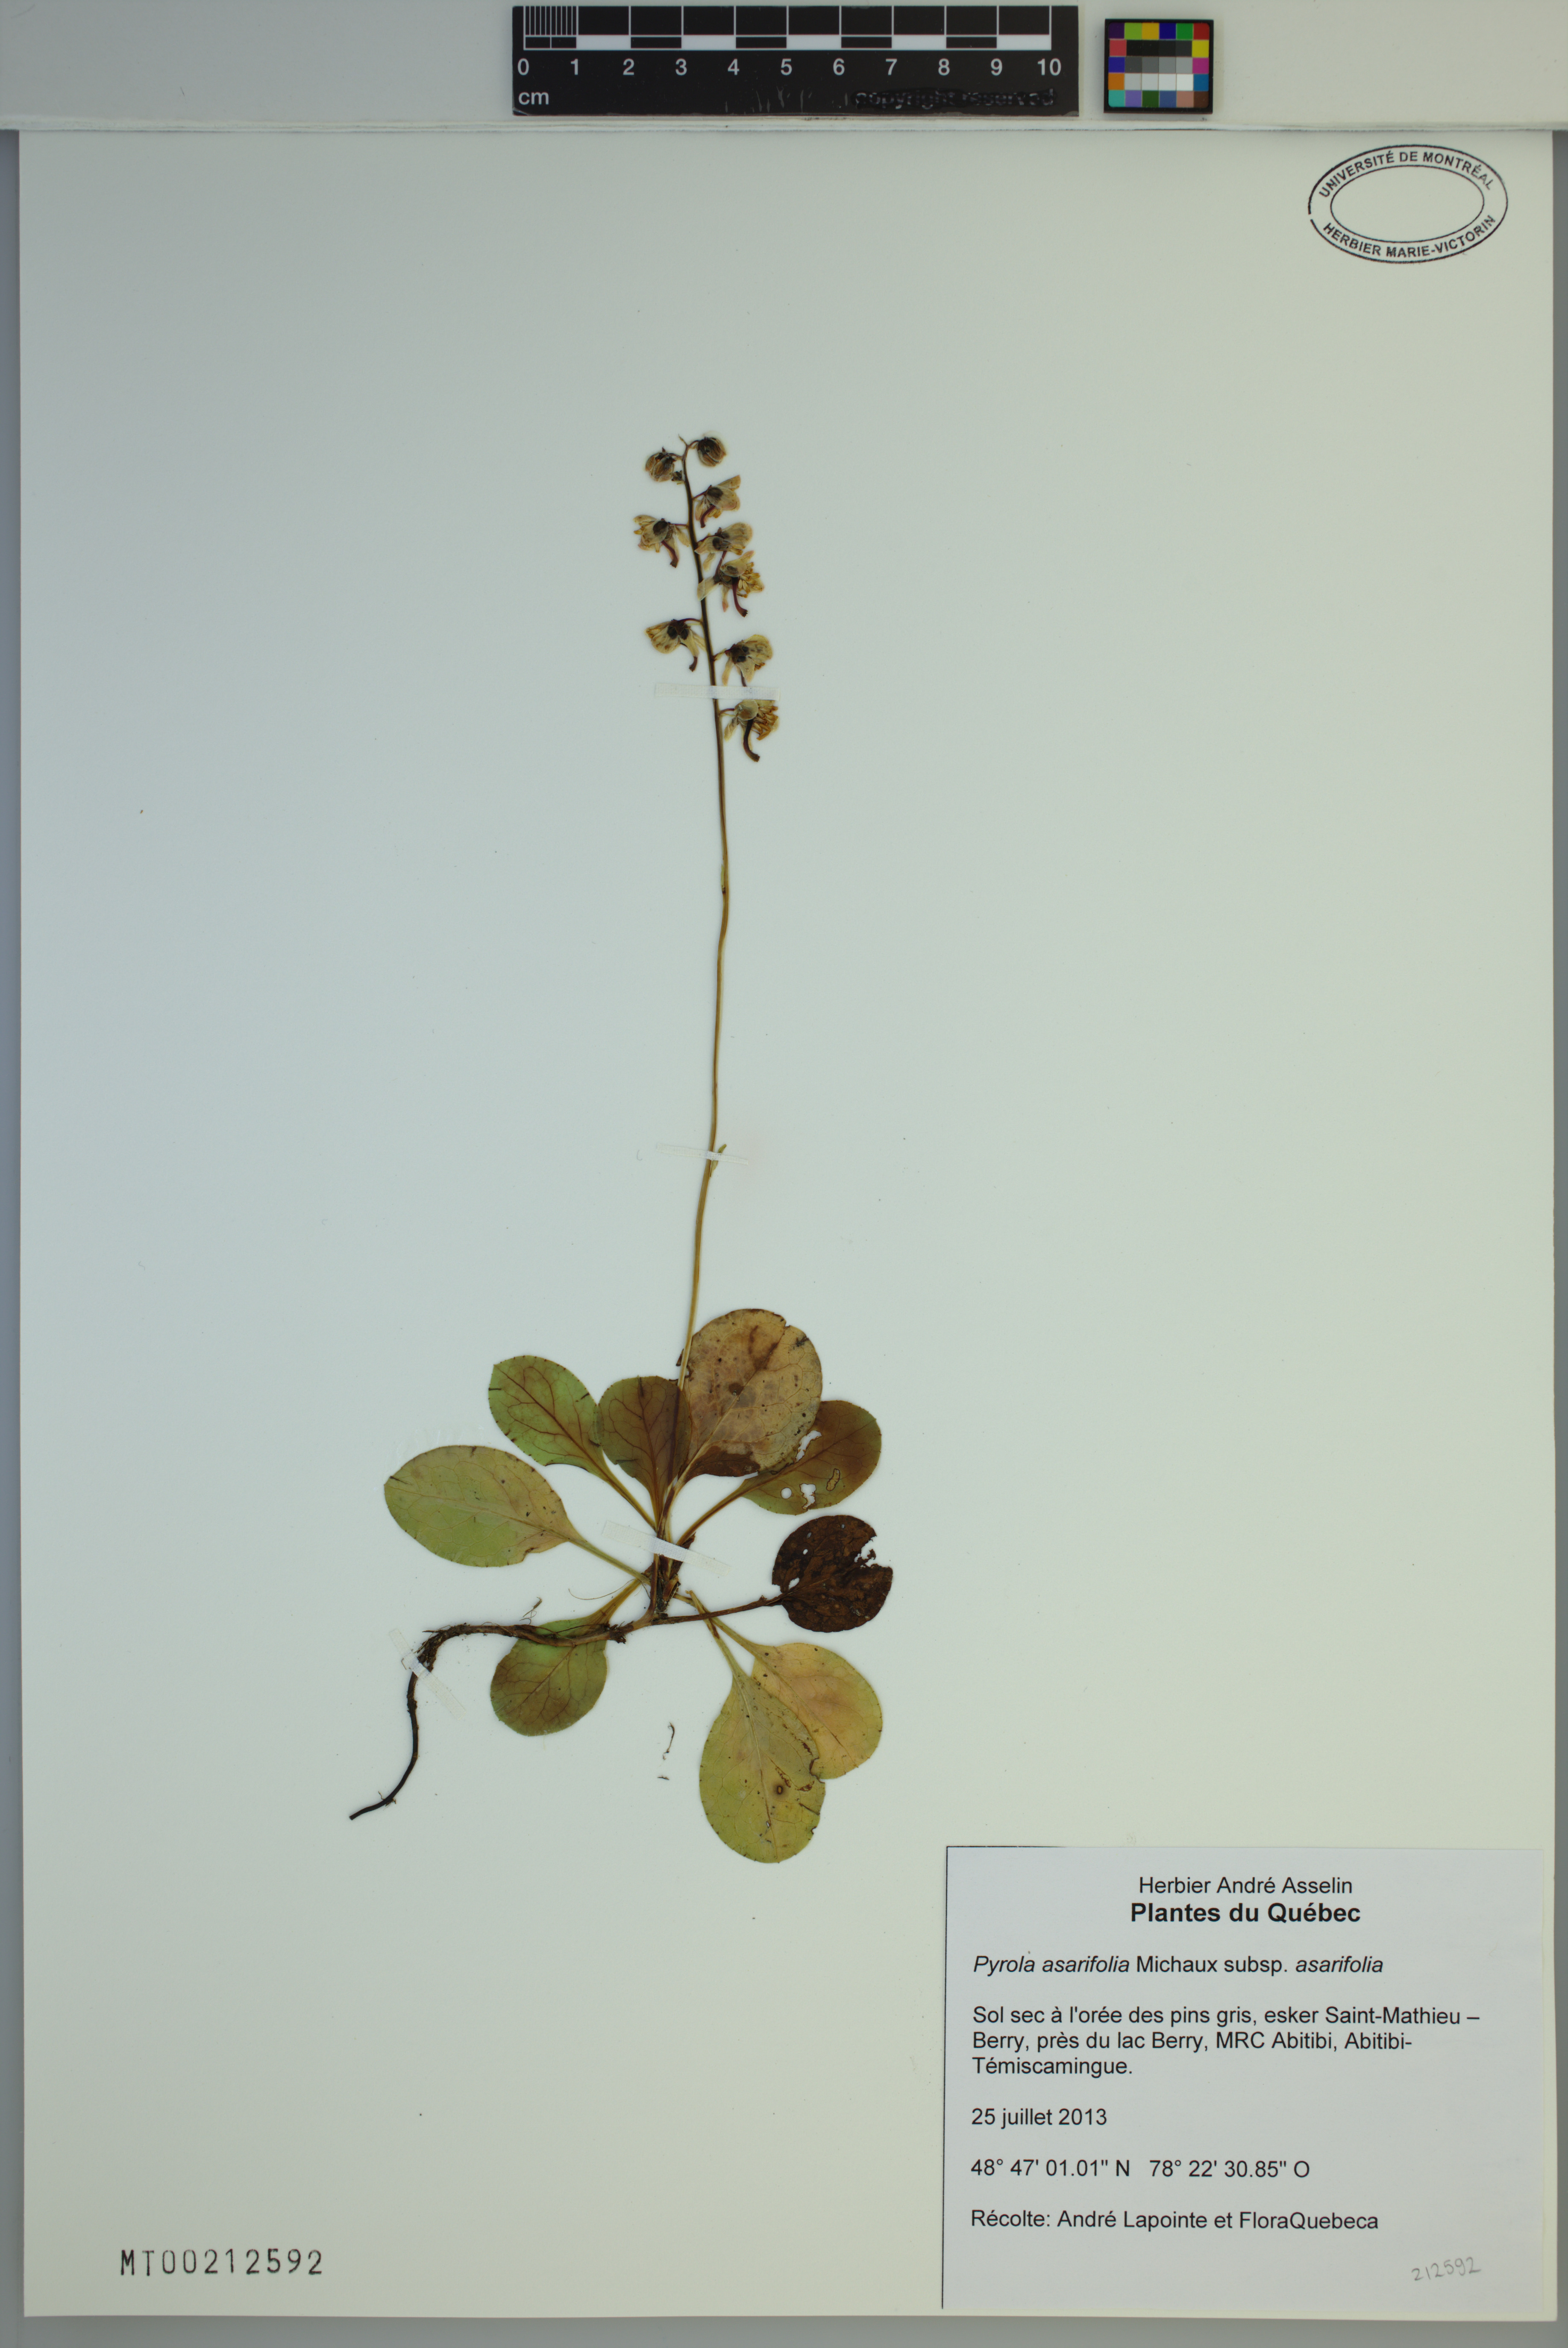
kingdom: Plantae
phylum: Tracheophyta
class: Magnoliopsida
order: Ericales
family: Ericaceae
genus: Pyrola
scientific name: Pyrola asarifolia
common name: Bog wintergreen
